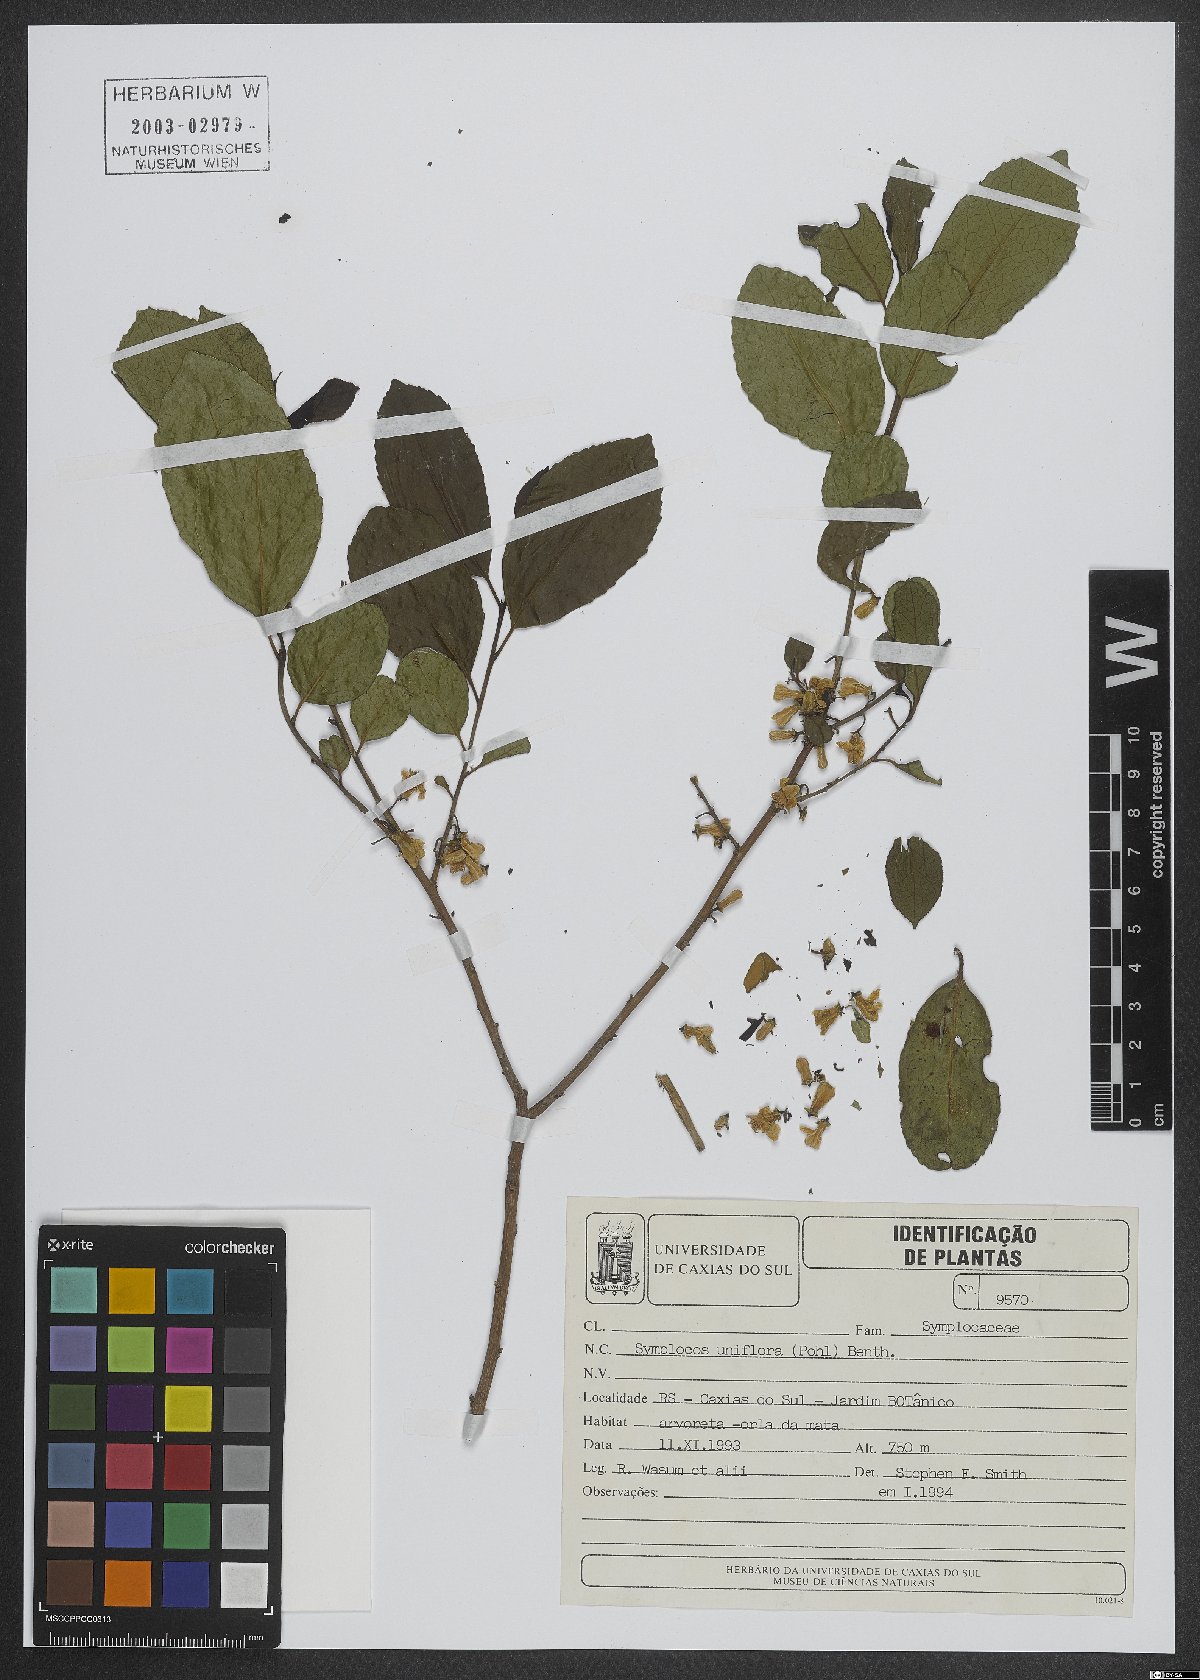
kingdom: Plantae
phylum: Tracheophyta
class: Magnoliopsida
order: Ericales
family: Symplocaceae
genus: Symplocos
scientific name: Symplocos uniflora
